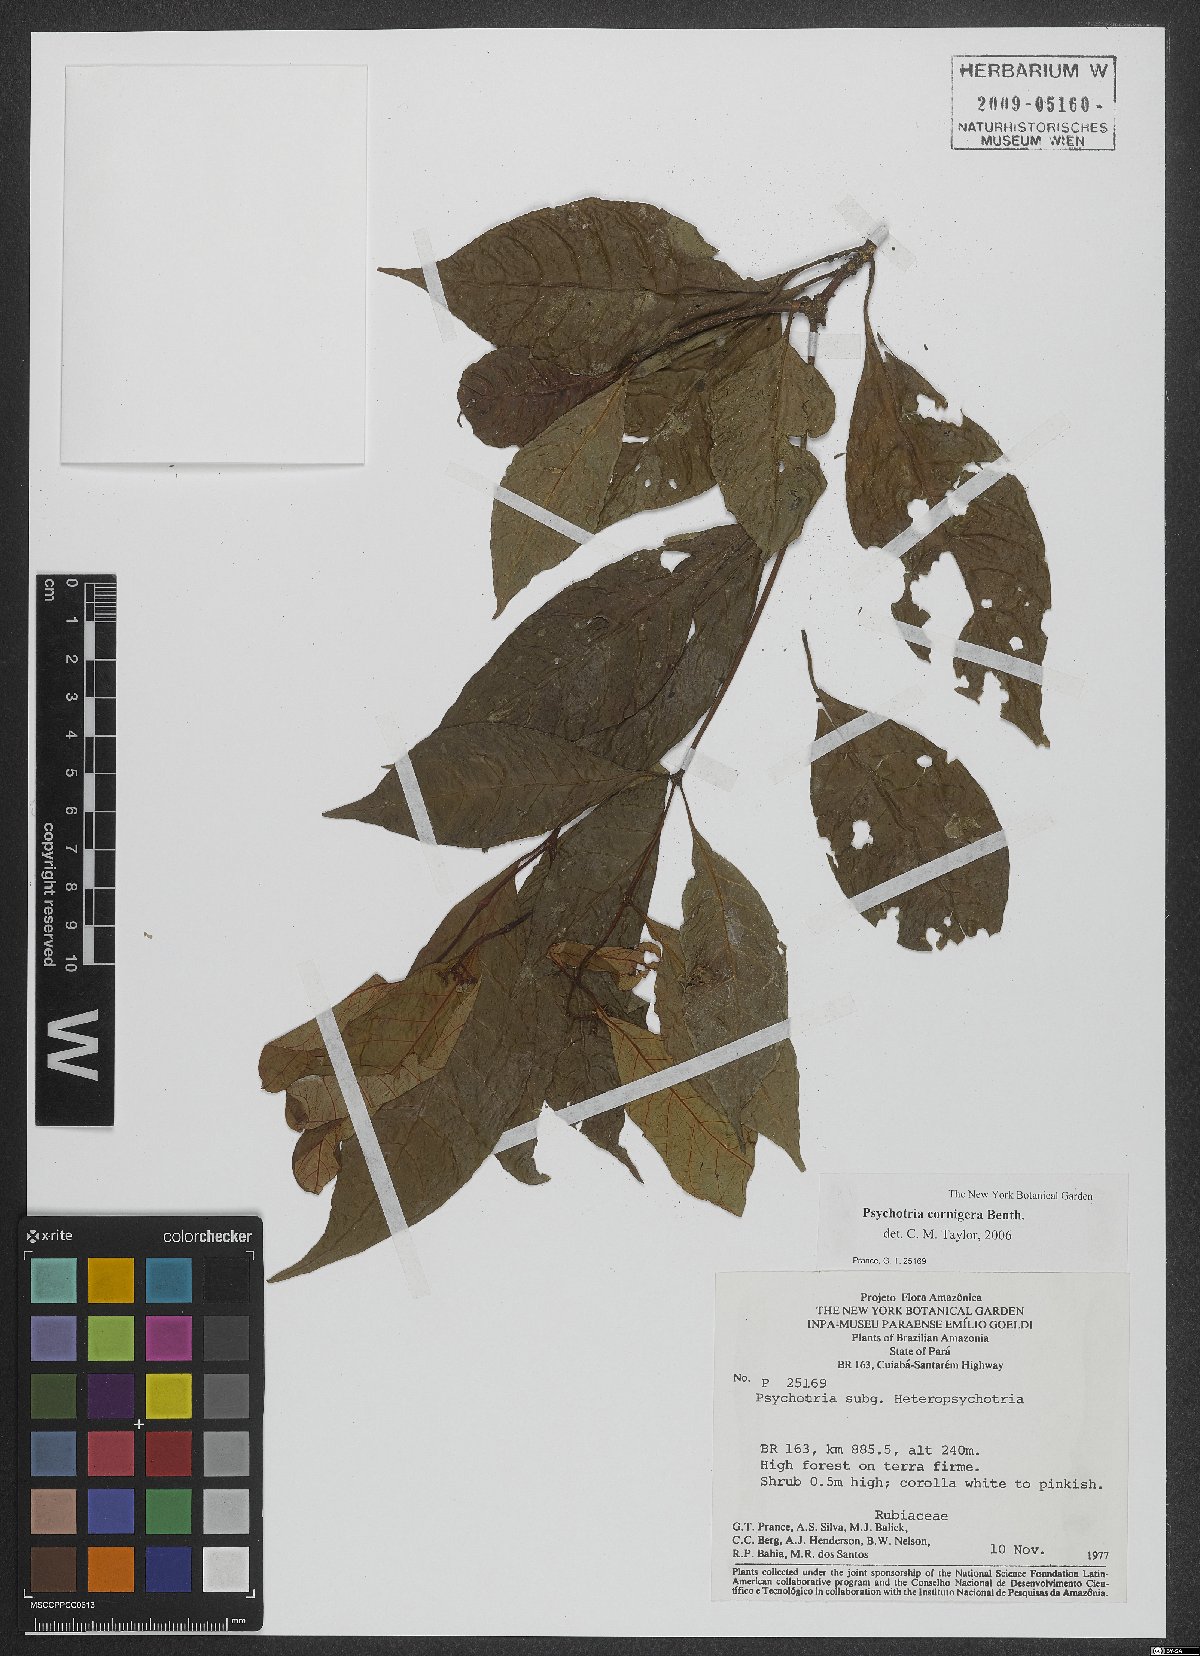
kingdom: Plantae
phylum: Tracheophyta
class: Magnoliopsida
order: Gentianales
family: Rubiaceae
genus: Palicourea
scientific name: Palicourea subcuspidata
